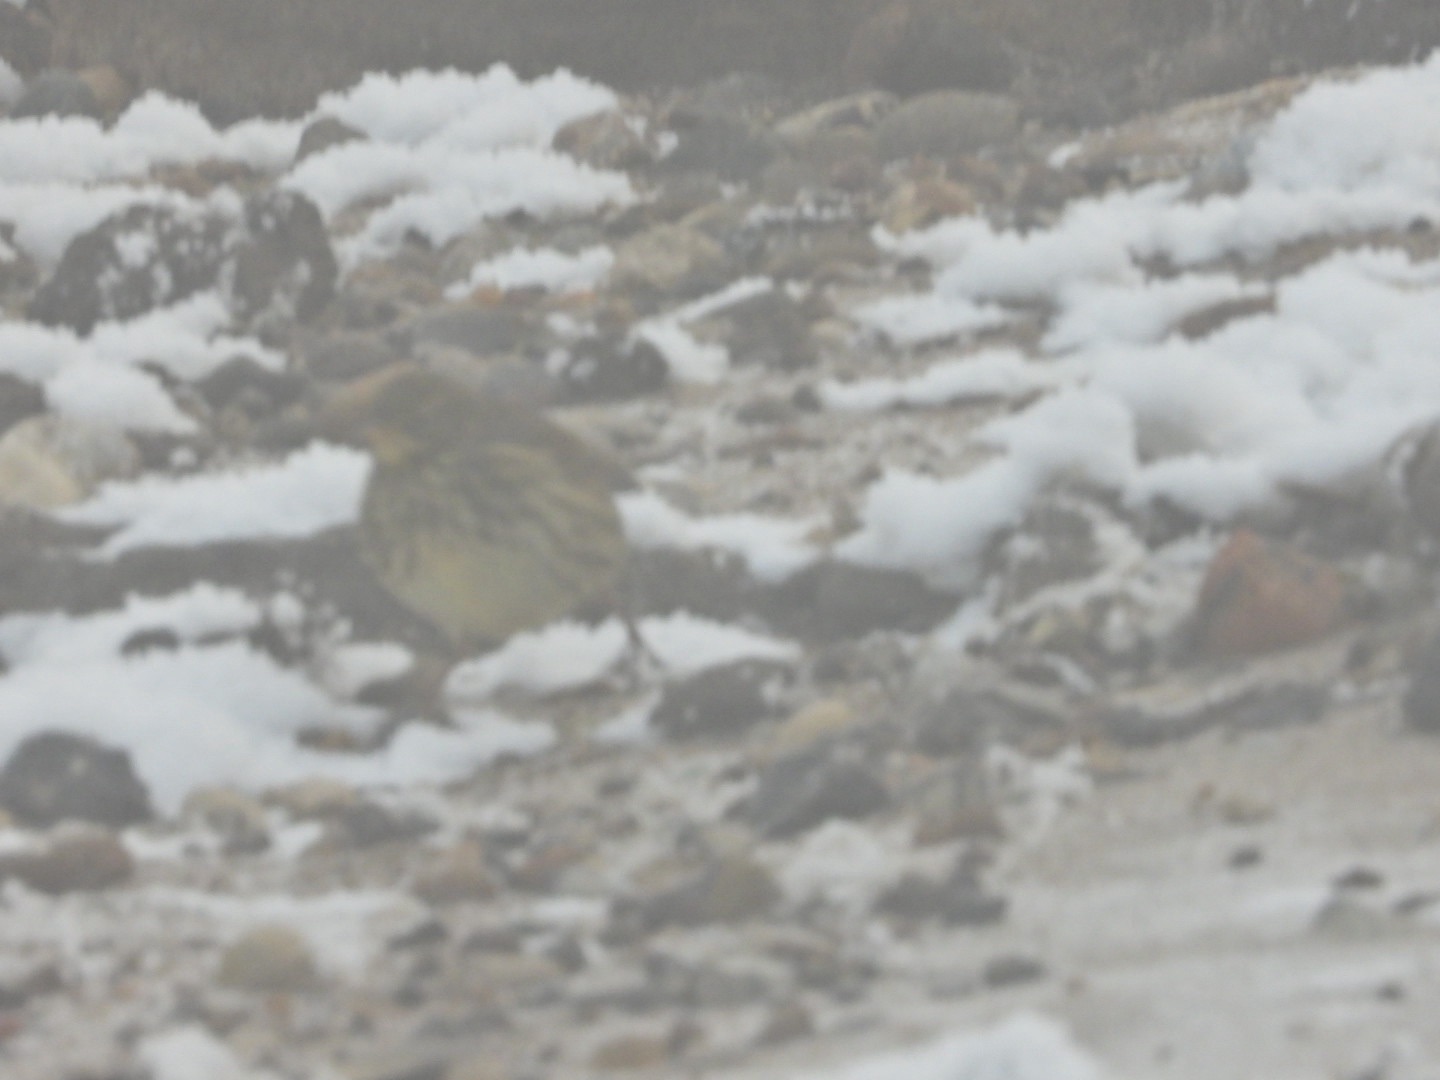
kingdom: Animalia
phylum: Chordata
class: Aves
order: Passeriformes
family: Motacillidae
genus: Anthus
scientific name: Anthus petrosus
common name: Skærpiber
